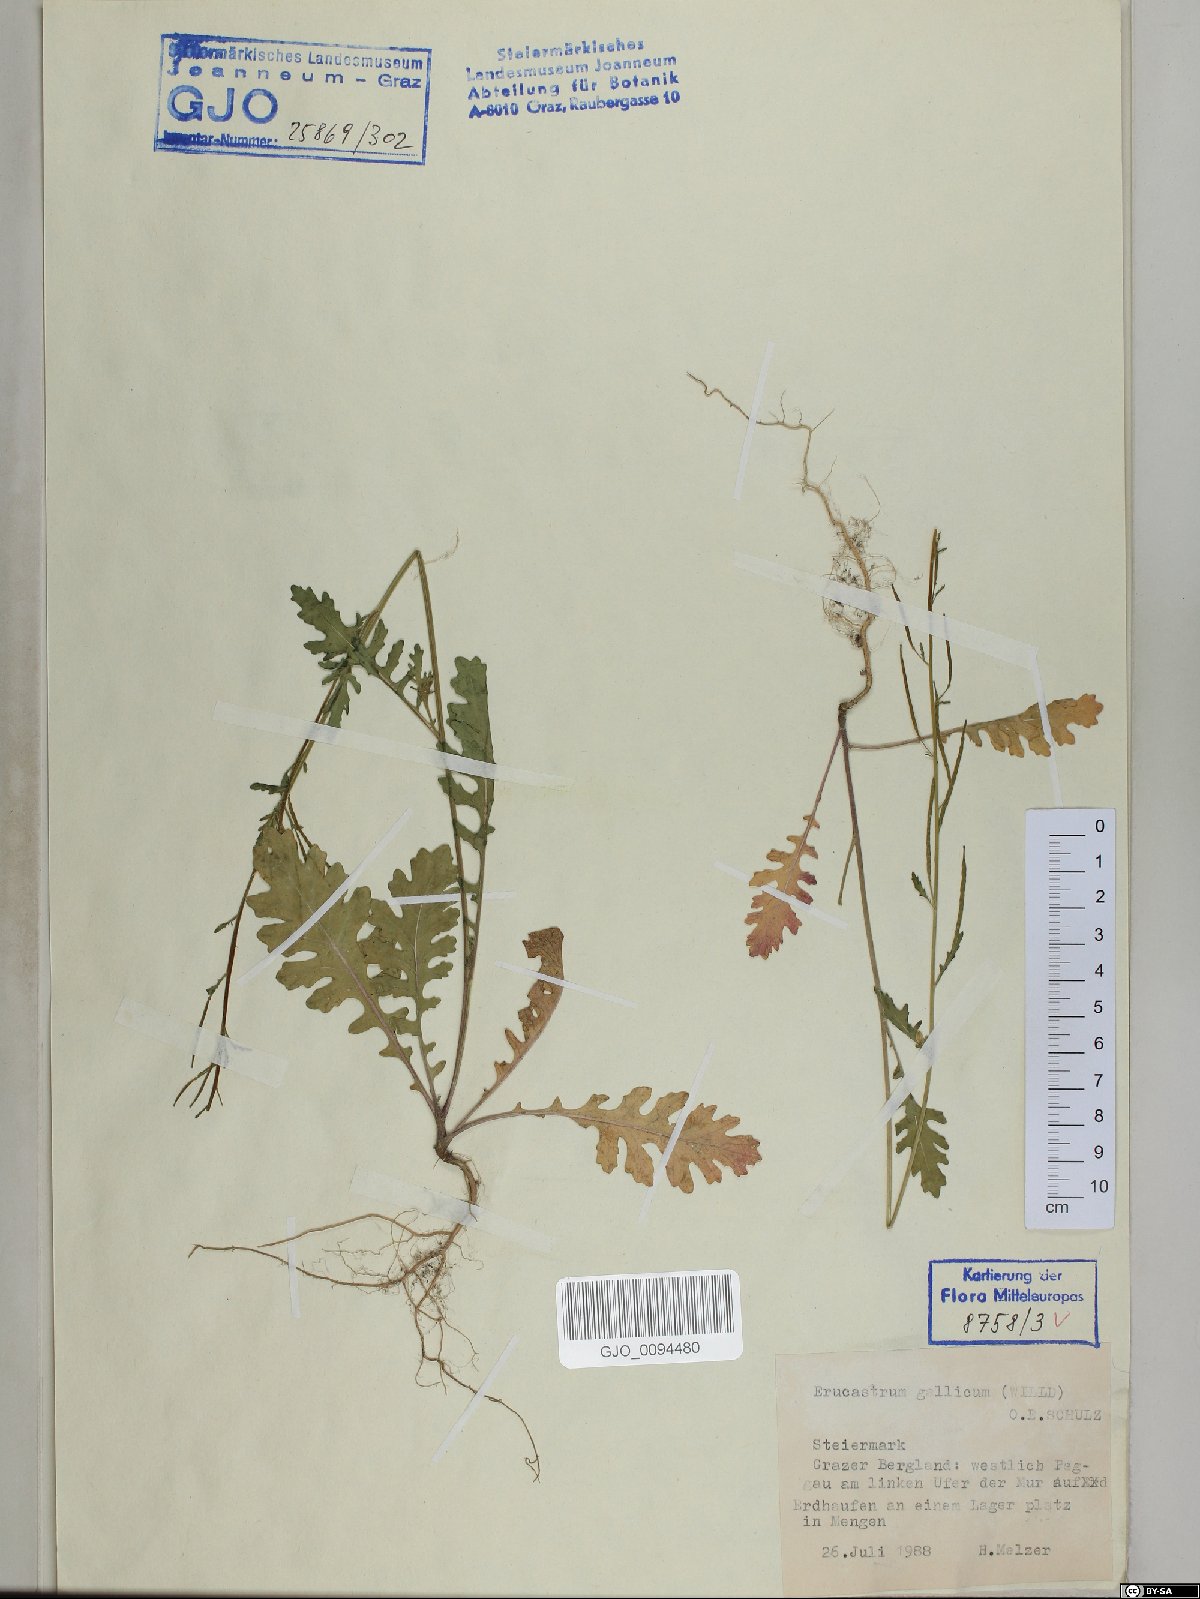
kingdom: Plantae
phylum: Tracheophyta
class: Magnoliopsida
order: Brassicales
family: Brassicaceae
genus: Erucastrum
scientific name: Erucastrum gallicum
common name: Hairy rocket
